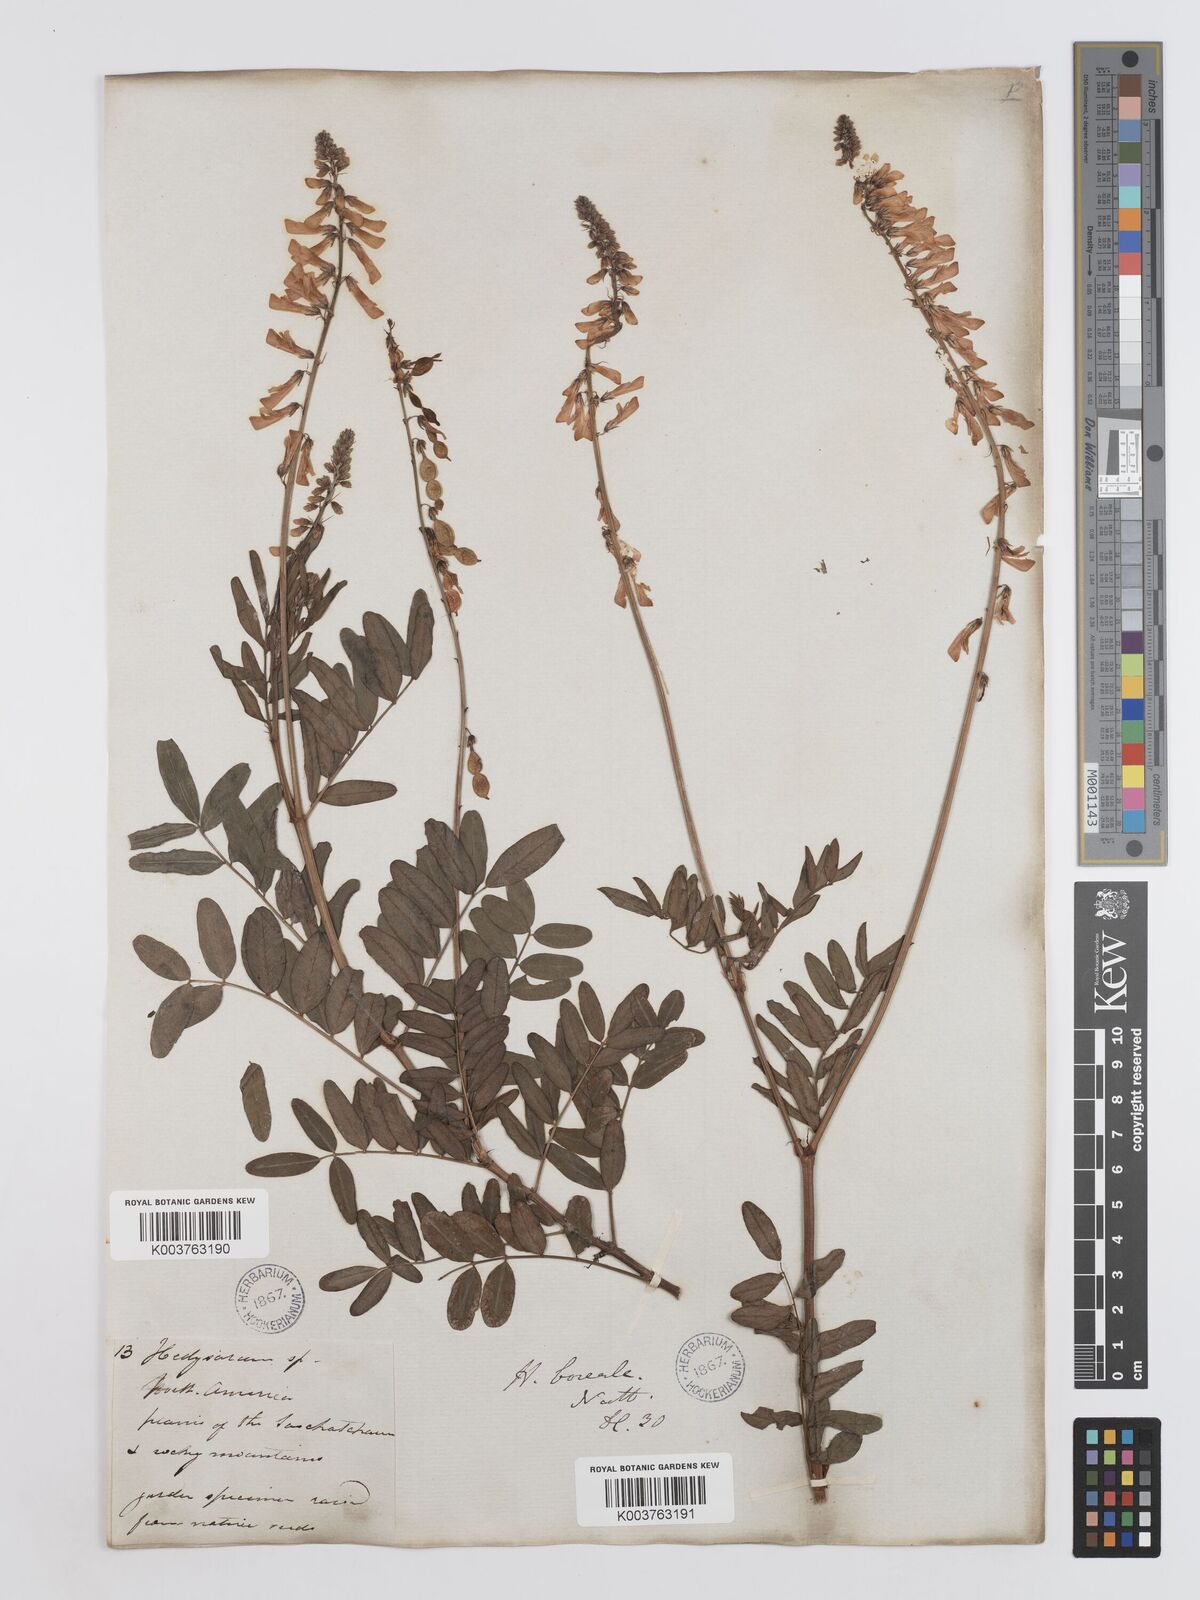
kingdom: Plantae
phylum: Tracheophyta
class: Magnoliopsida
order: Fabales
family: Fabaceae
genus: Hedysarum
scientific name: Hedysarum boreale
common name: Northern sweet-vetch
